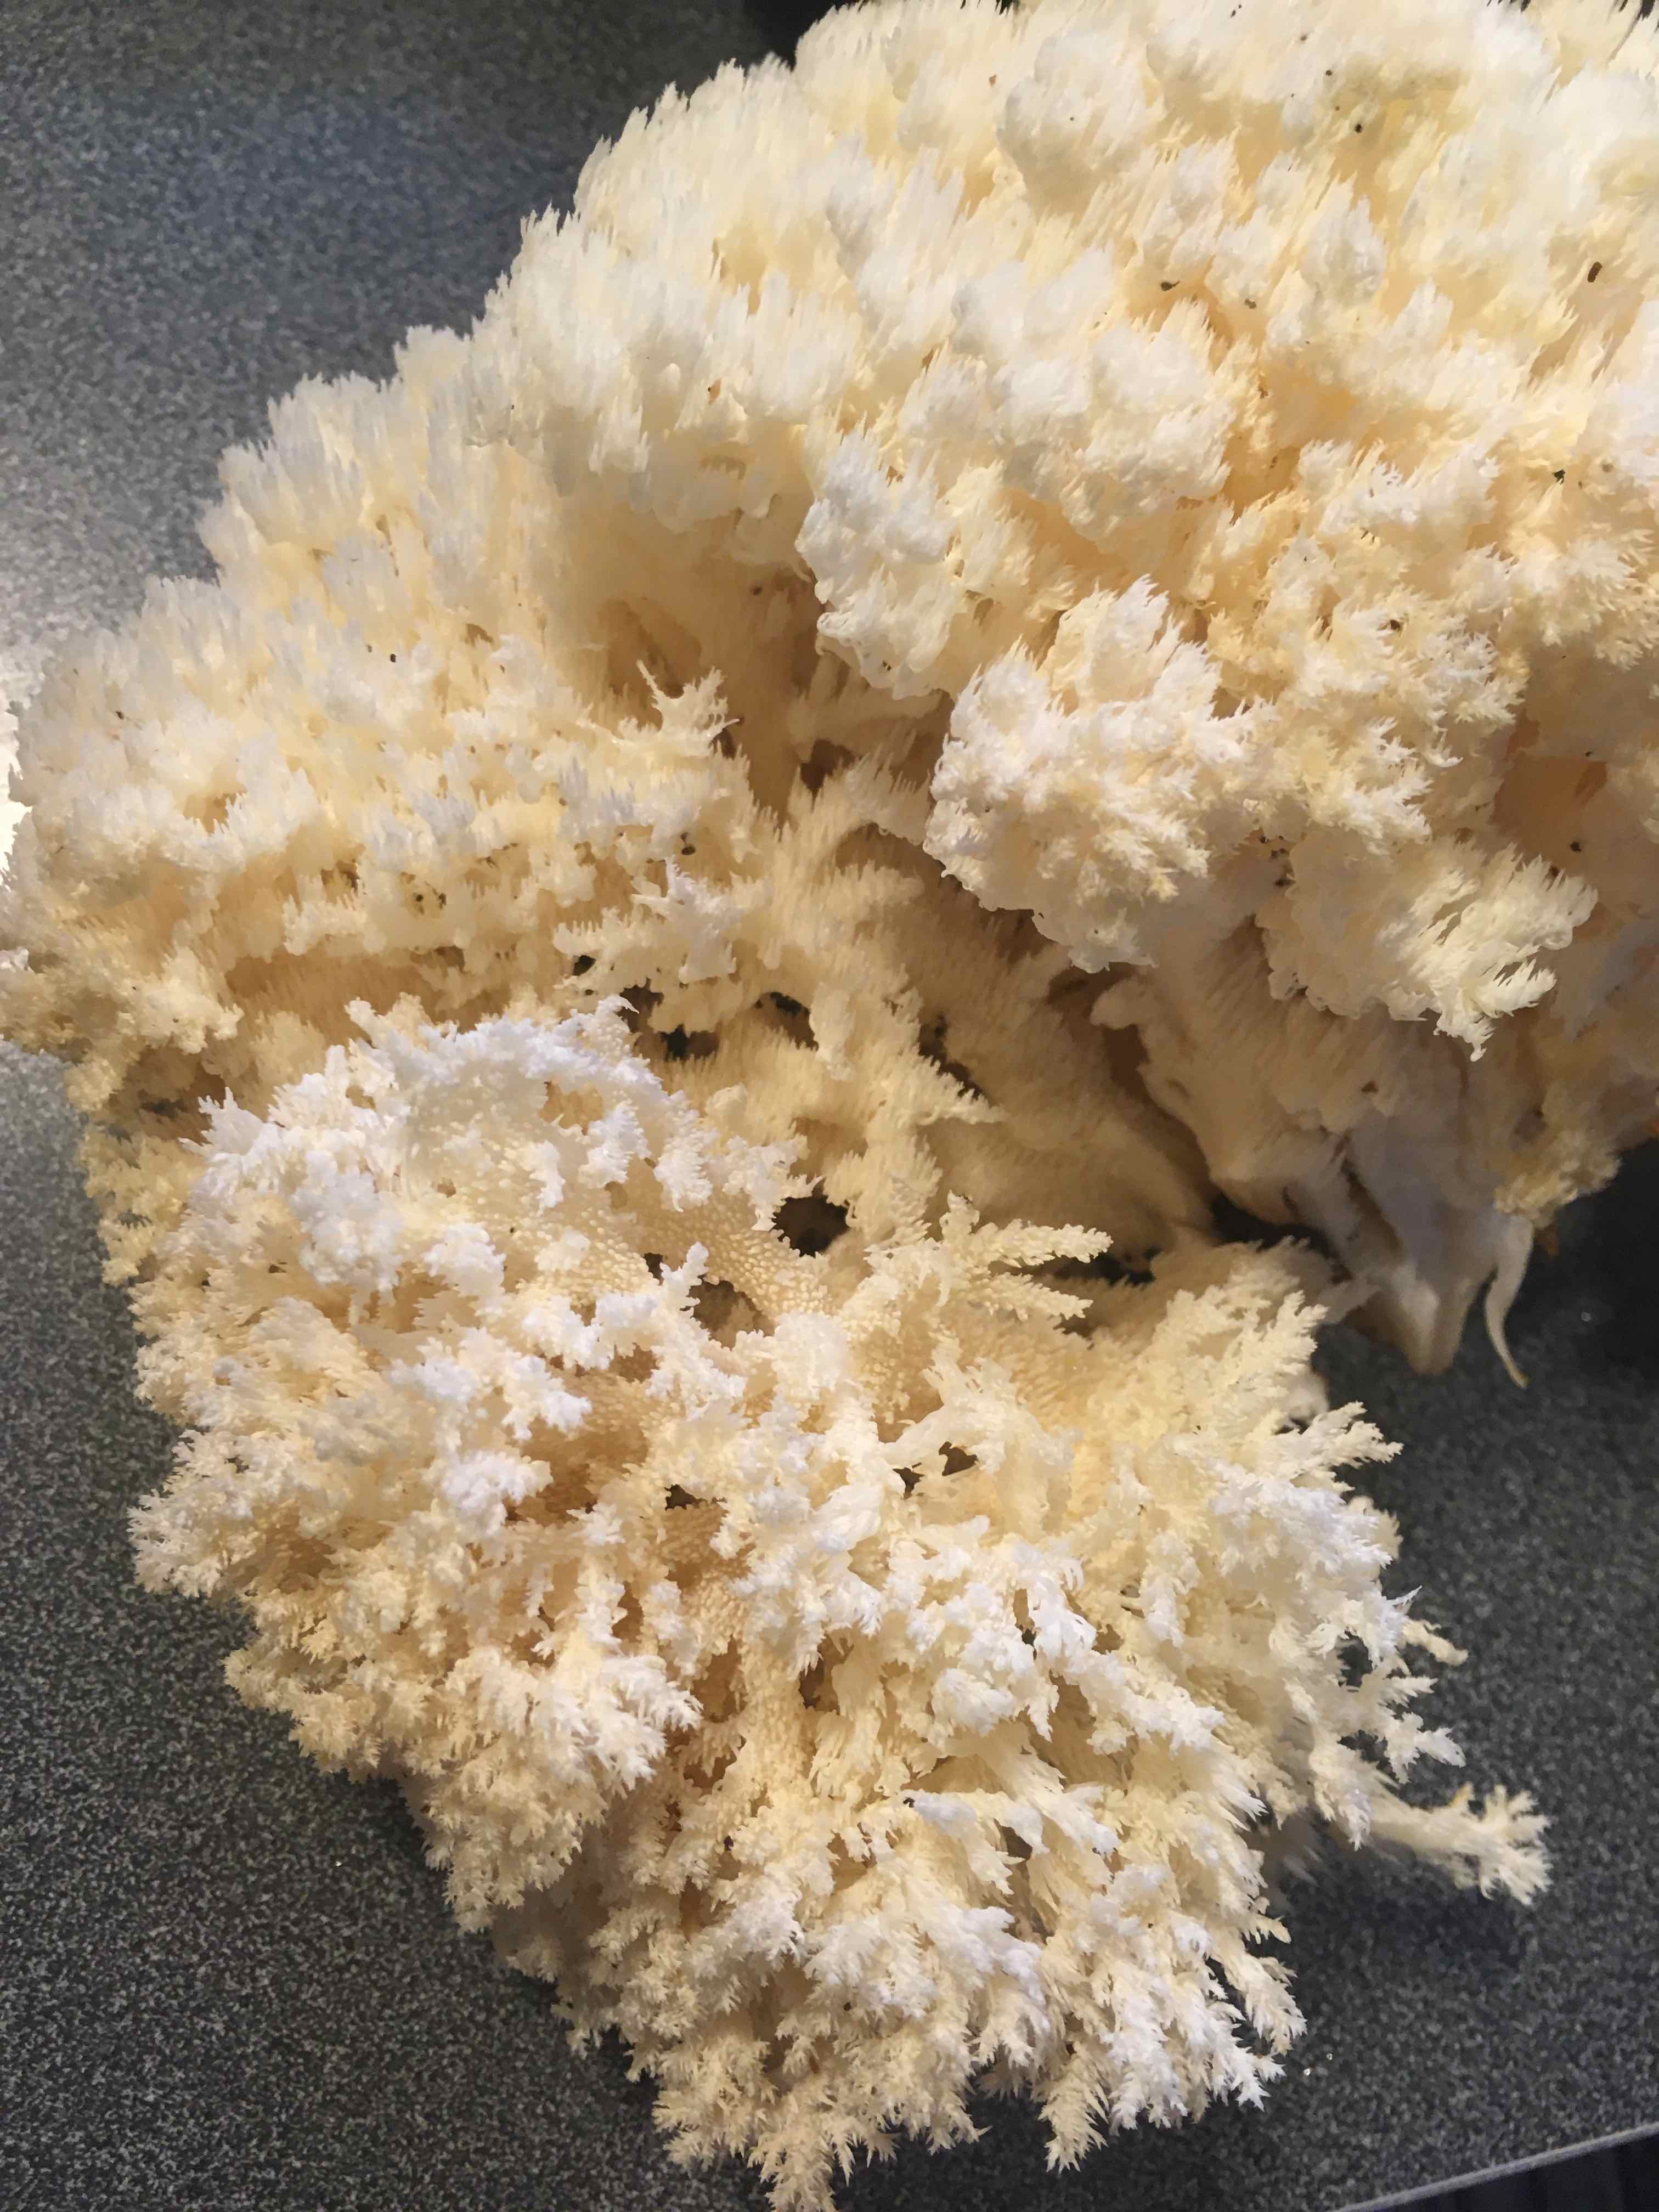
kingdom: Fungi
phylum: Basidiomycota
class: Agaricomycetes
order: Russulales
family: Hericiaceae
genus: Hericium
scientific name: Hericium coralloides
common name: koralpigsvamp
